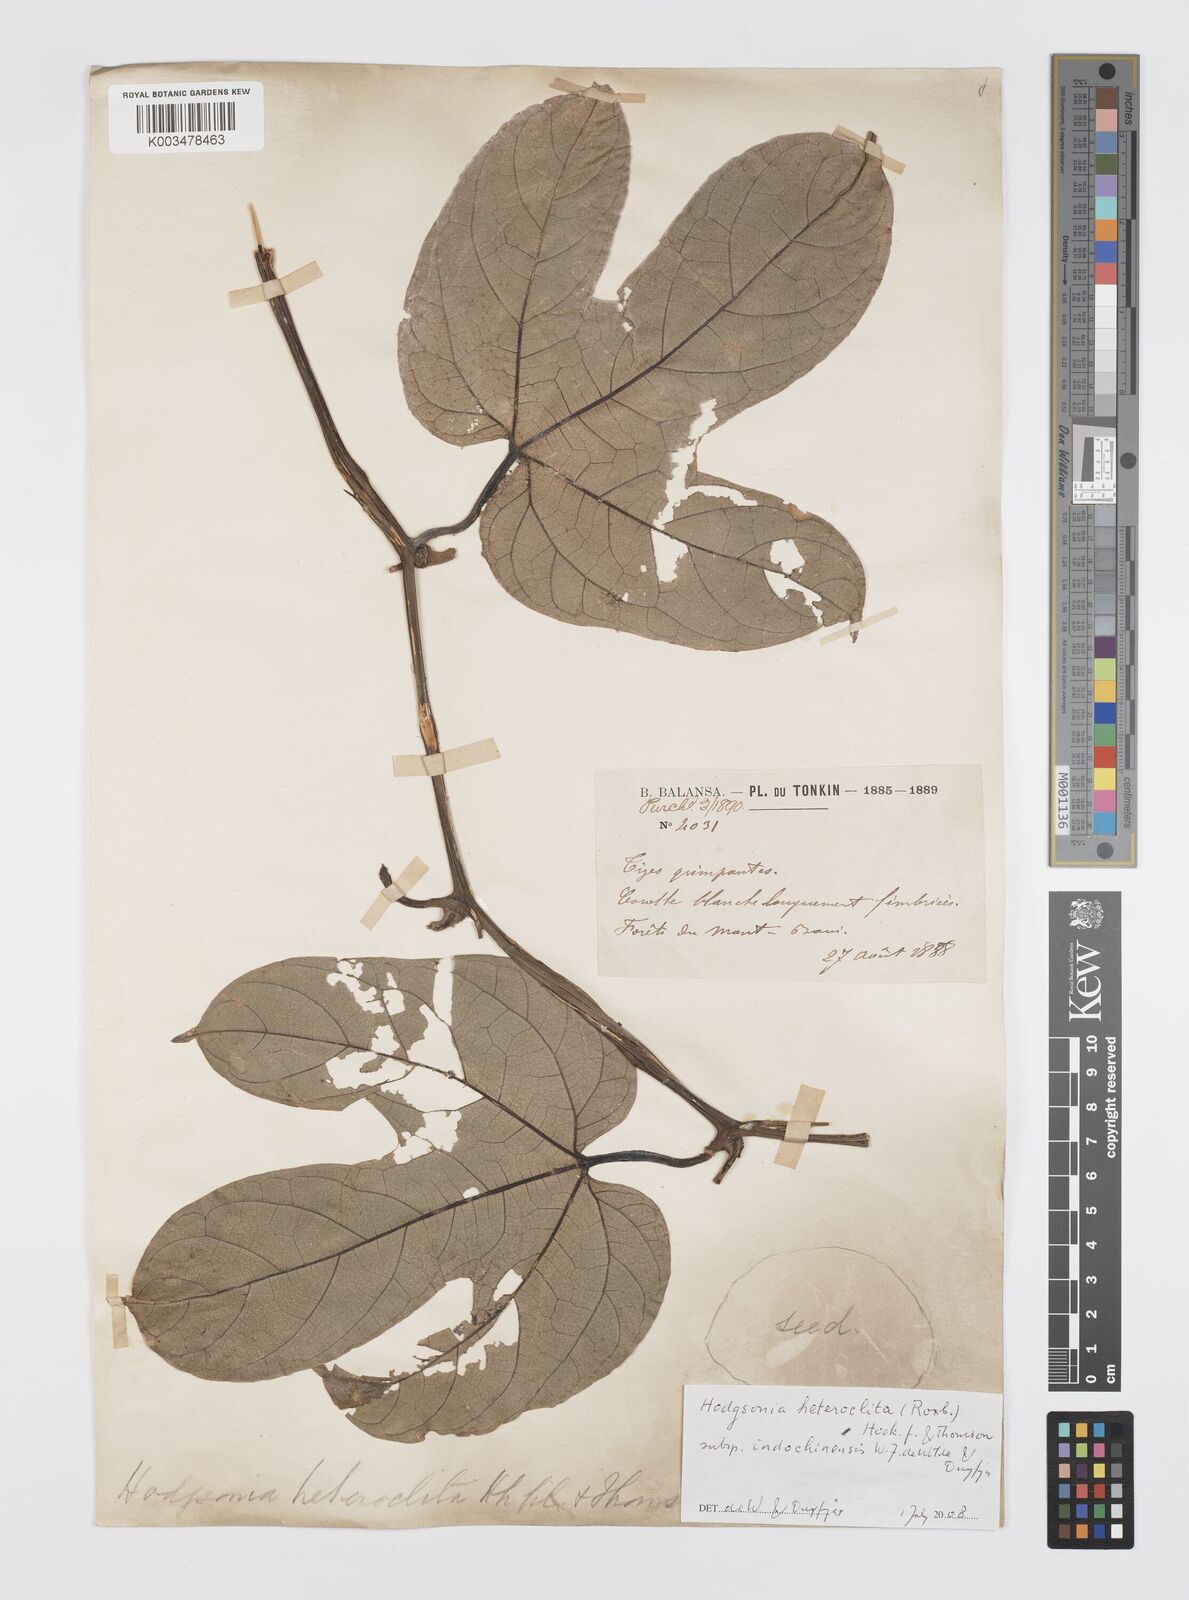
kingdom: Plantae
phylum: Tracheophyta
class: Magnoliopsida
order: Cucurbitales
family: Cucurbitaceae
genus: Hodgsonia
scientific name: Hodgsonia macrocarpa
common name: Chinese lardfruit
